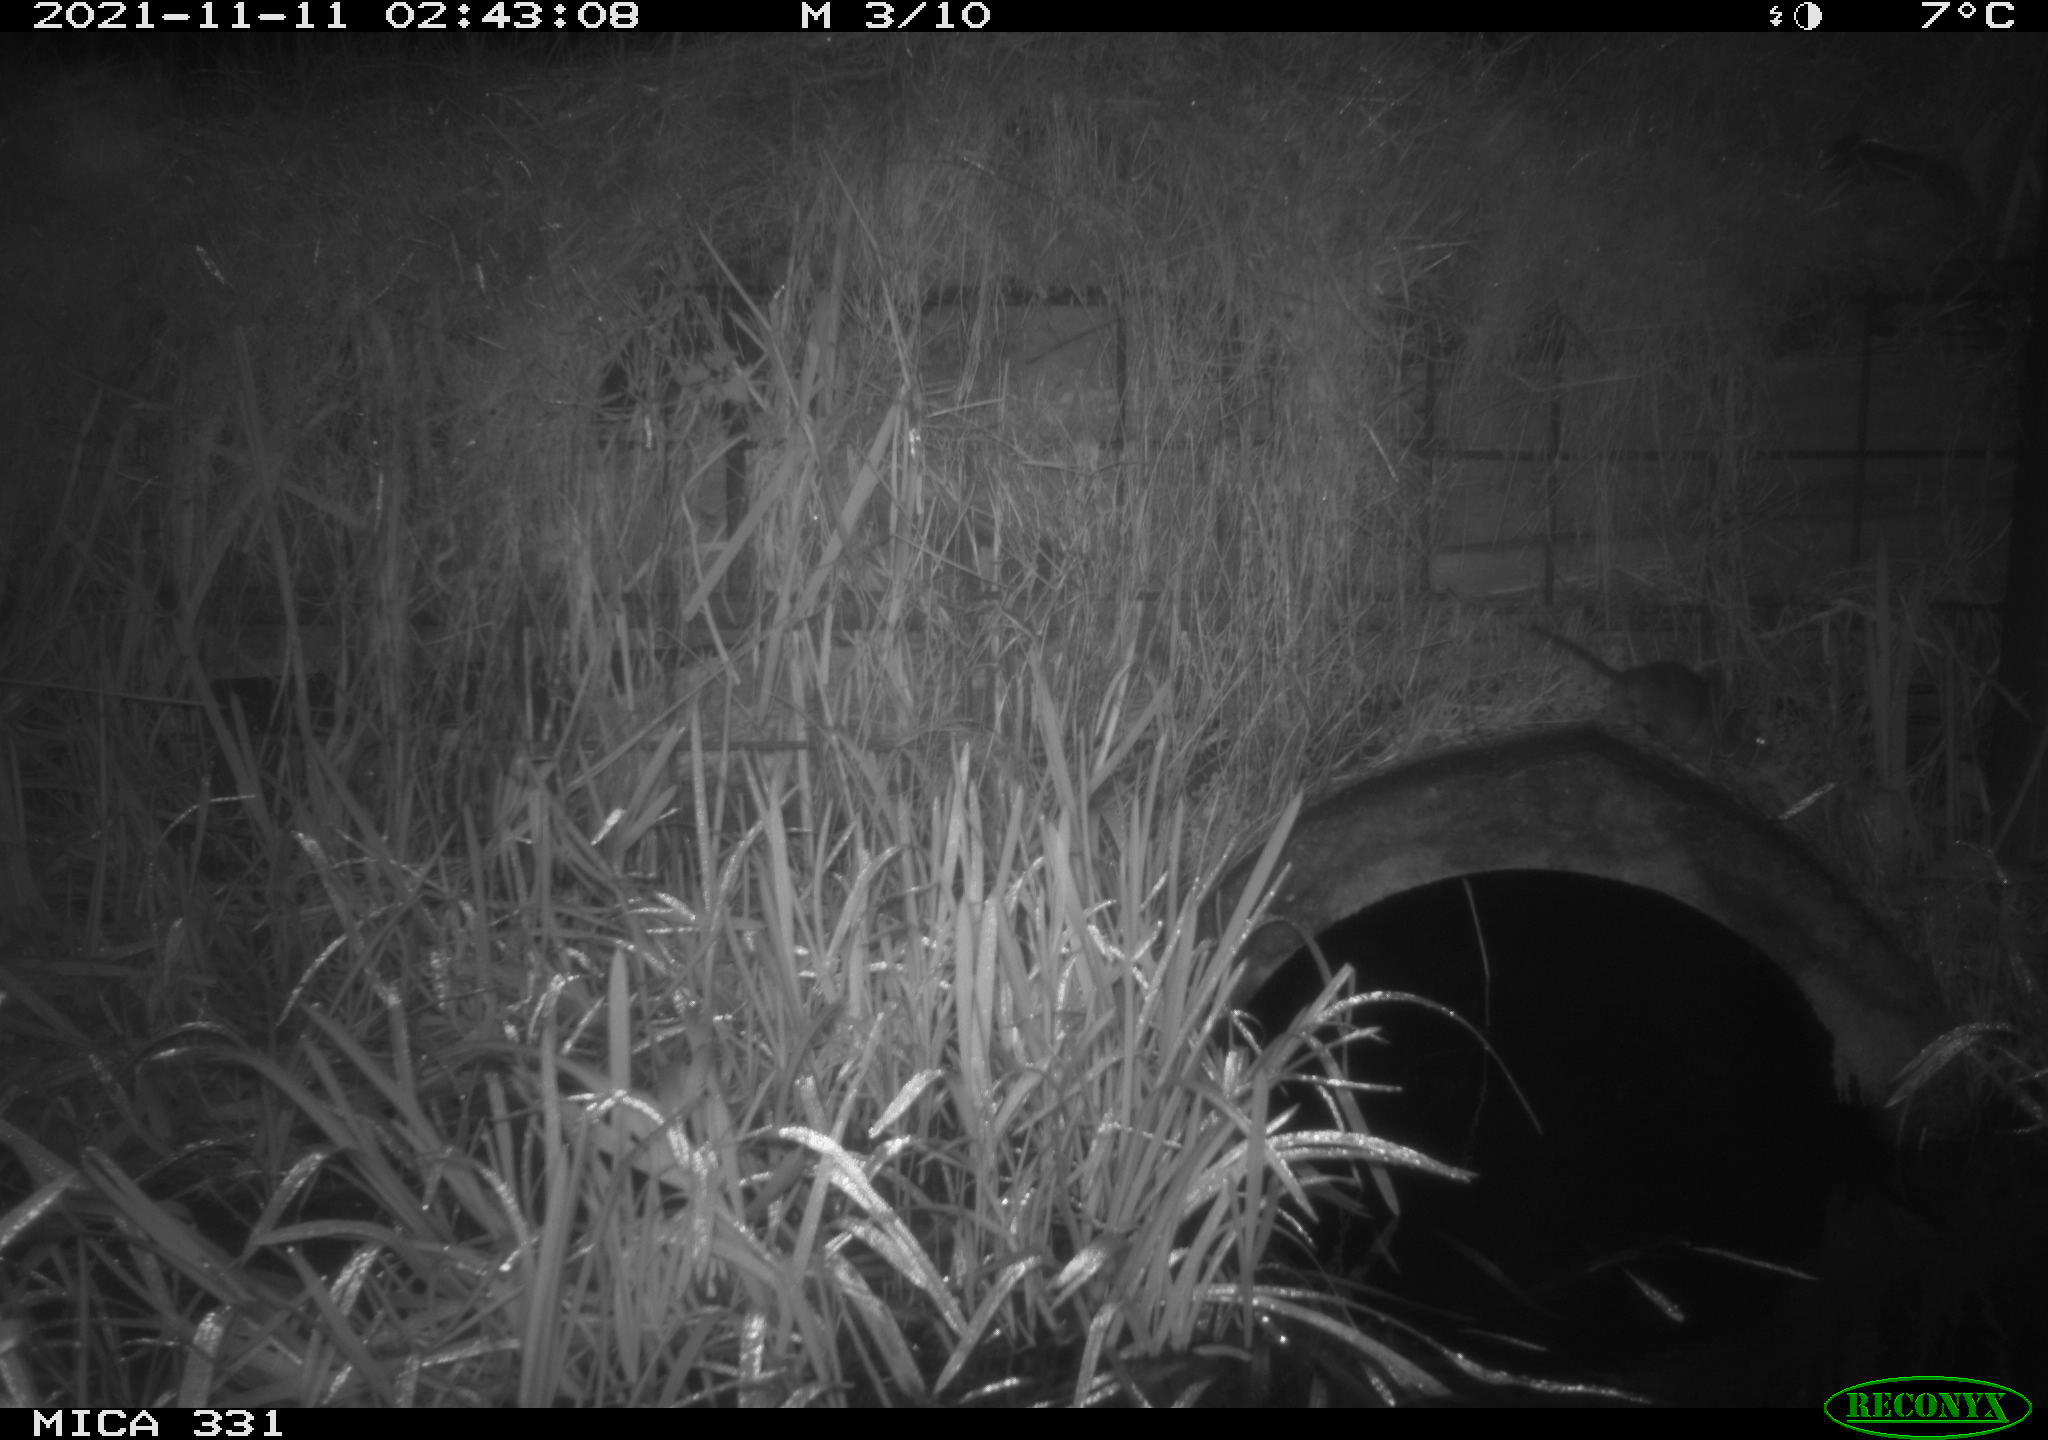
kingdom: Animalia
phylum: Chordata
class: Mammalia
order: Rodentia
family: Muridae
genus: Rattus
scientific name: Rattus norvegicus
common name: Brown rat
